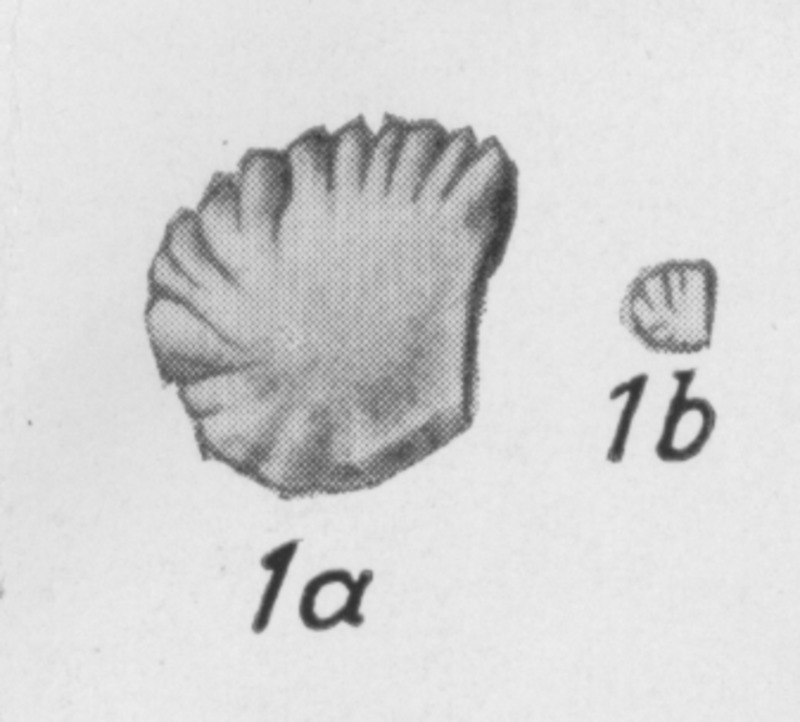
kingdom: Animalia
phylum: Chordata
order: Anguilliformes
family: Muraenidae
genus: Otolithus
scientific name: Otolithus
